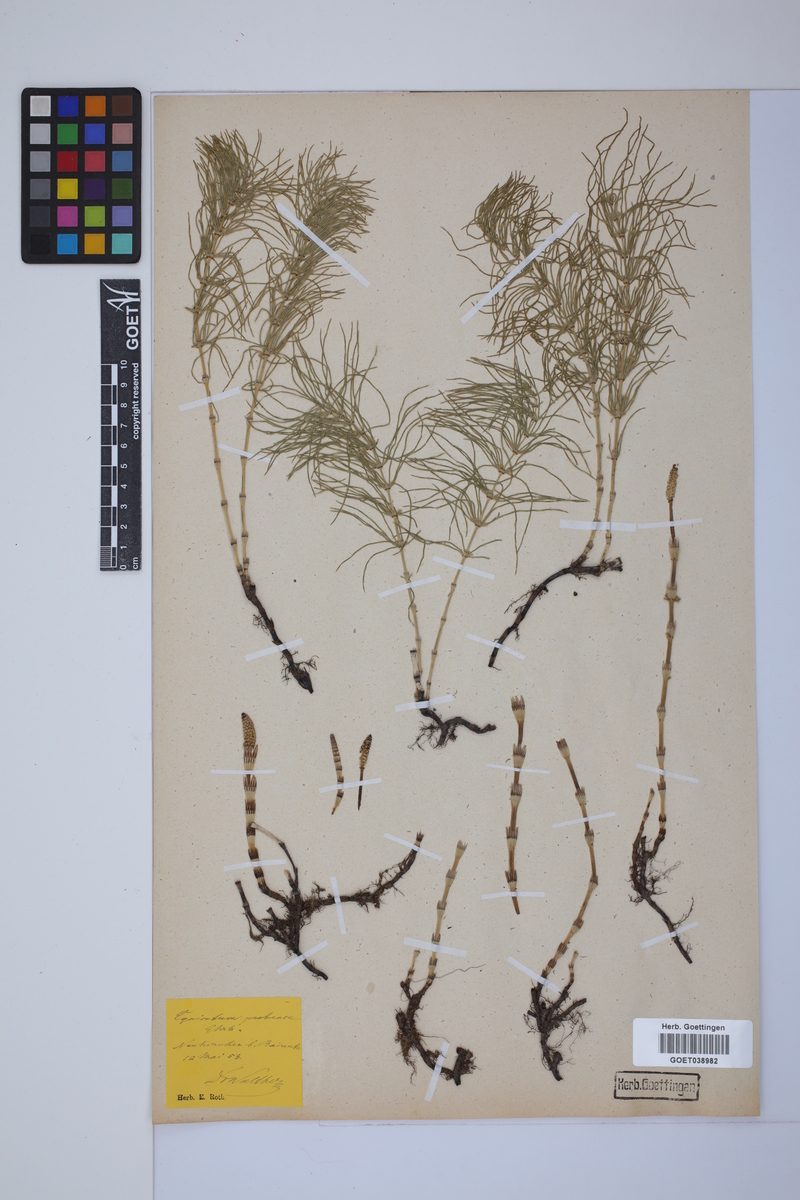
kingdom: Plantae
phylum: Tracheophyta
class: Polypodiopsida
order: Equisetales
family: Equisetaceae
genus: Equisetum
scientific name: Equisetum pratense
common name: Meadow horsetail
